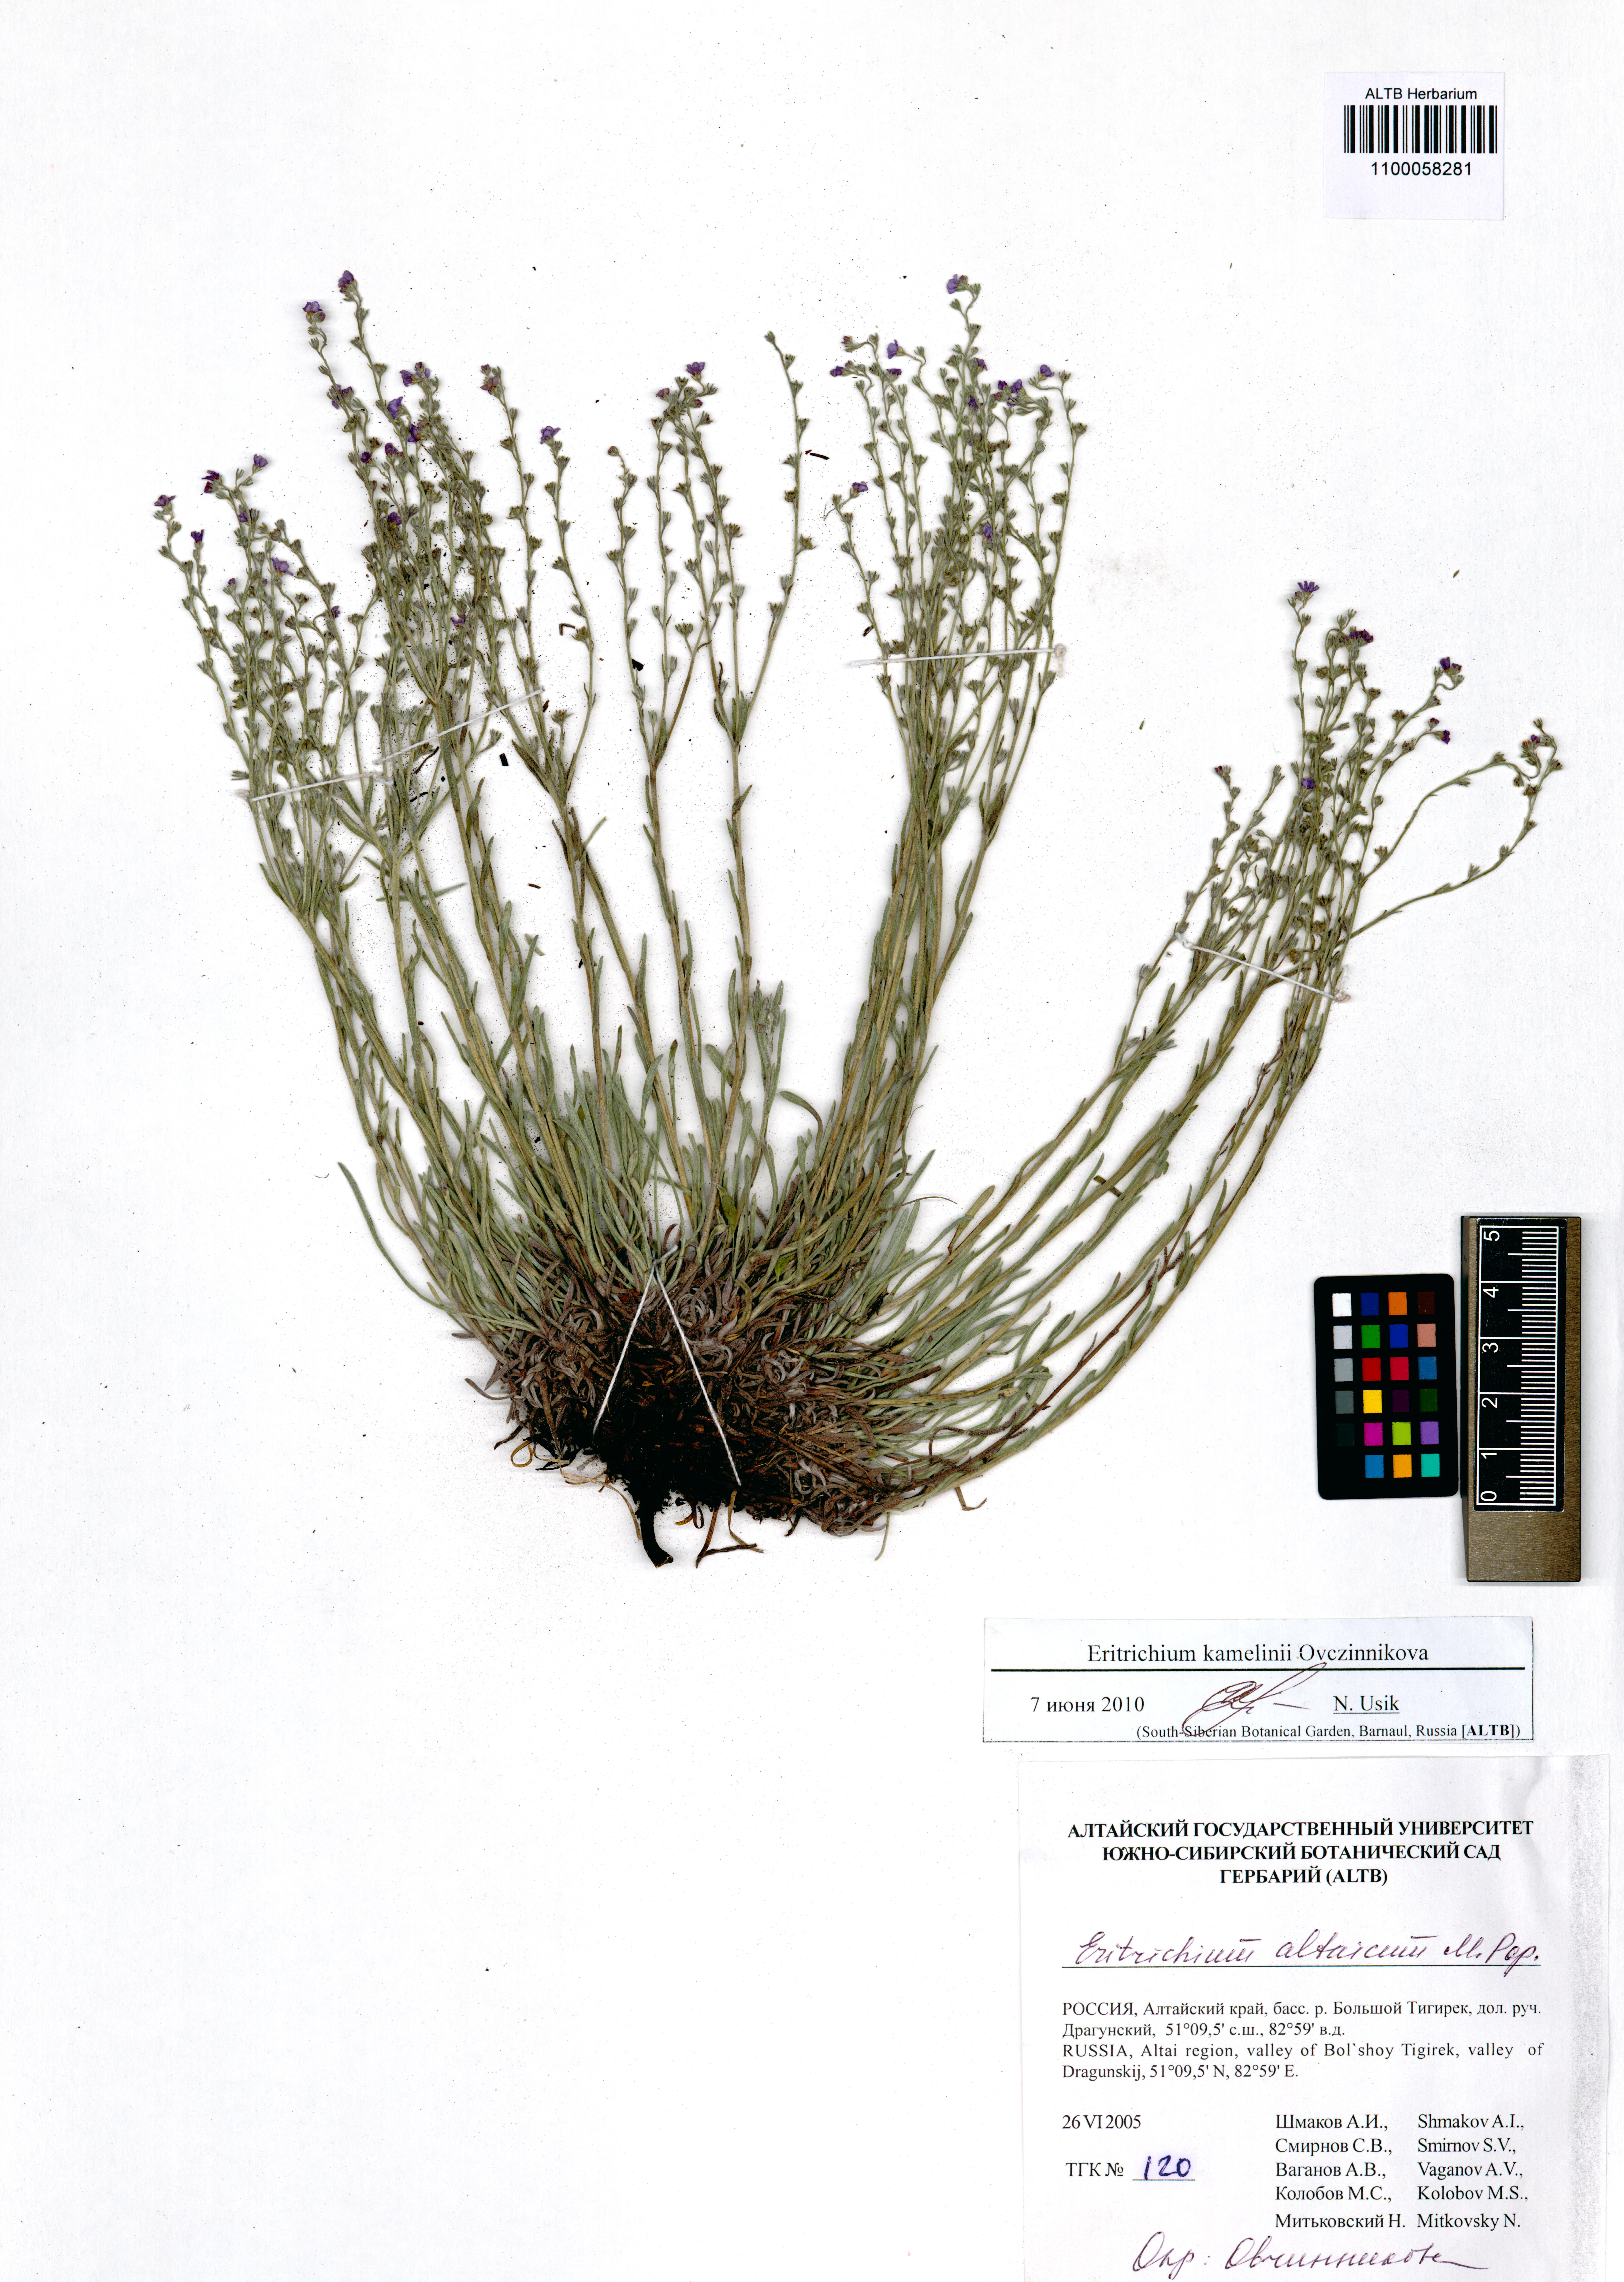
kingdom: Plantae
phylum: Tracheophyta
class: Magnoliopsida
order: Boraginales
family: Boraginaceae
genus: Eritrichium
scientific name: Eritrichium kamelinii
